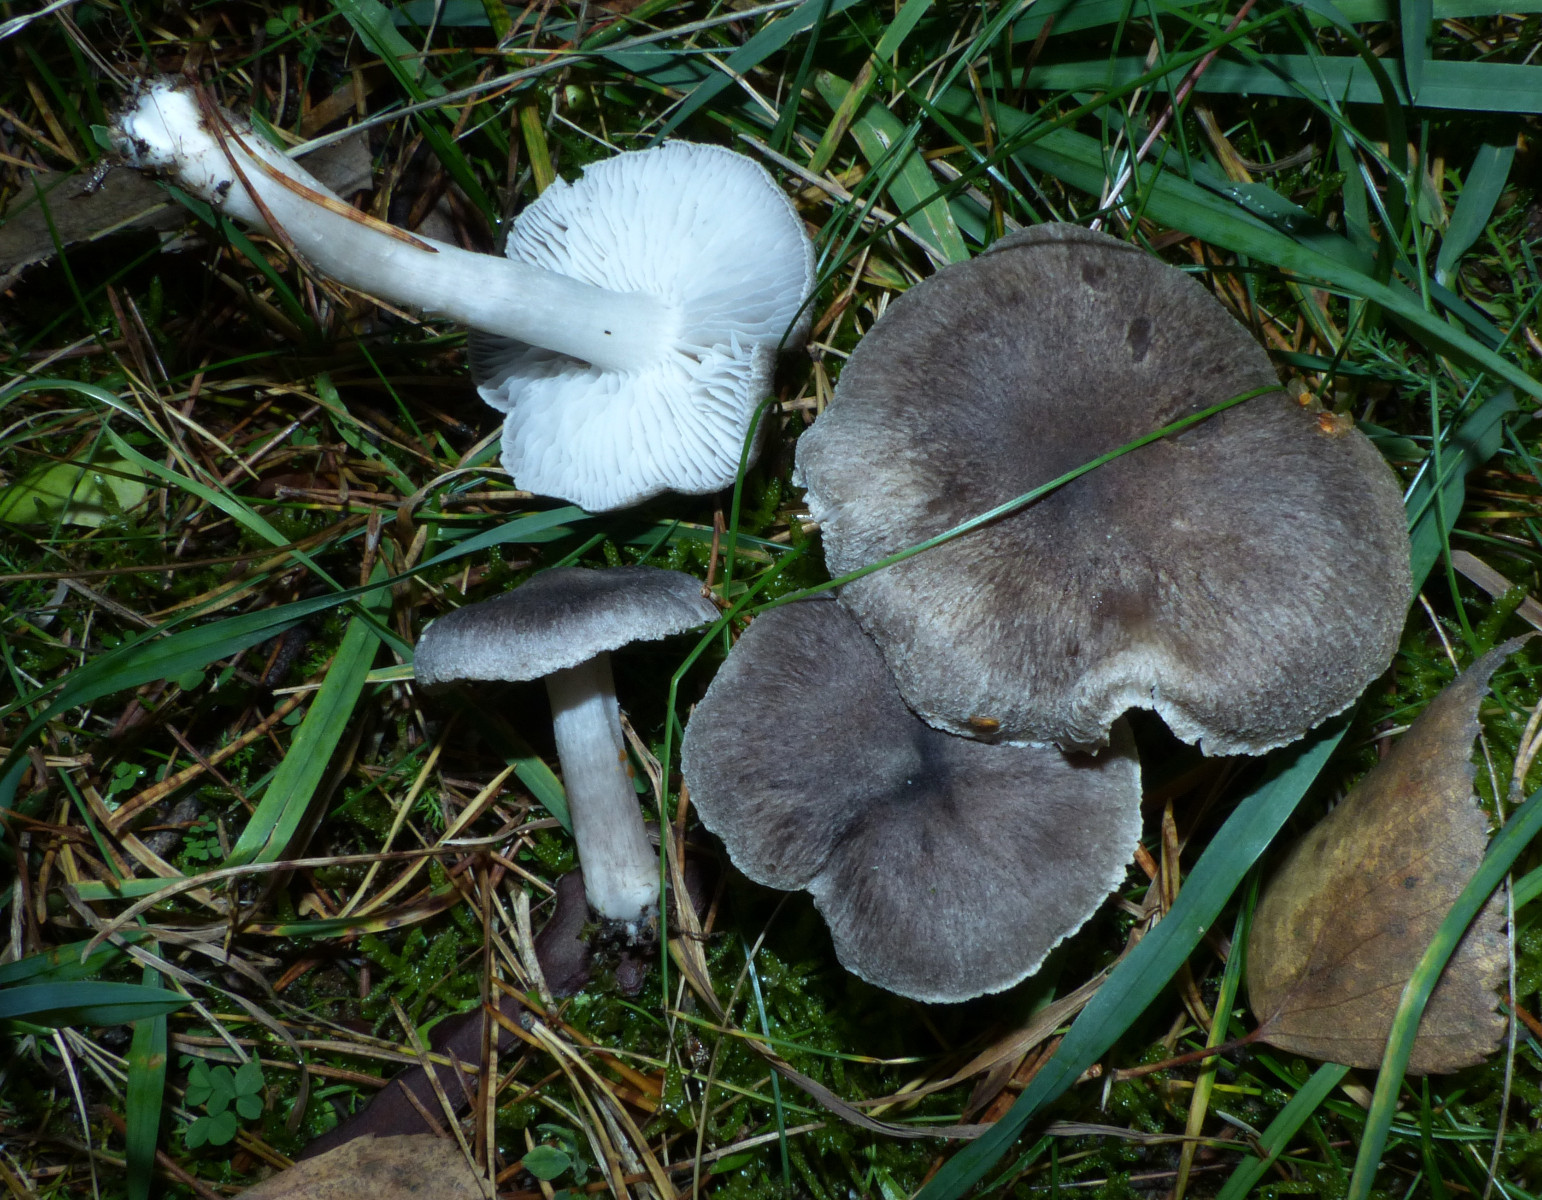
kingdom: Fungi
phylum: Basidiomycota
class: Agaricomycetes
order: Agaricales
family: Tricholomataceae
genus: Tricholoma
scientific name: Tricholoma terreum
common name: jordfarvet ridderhat
